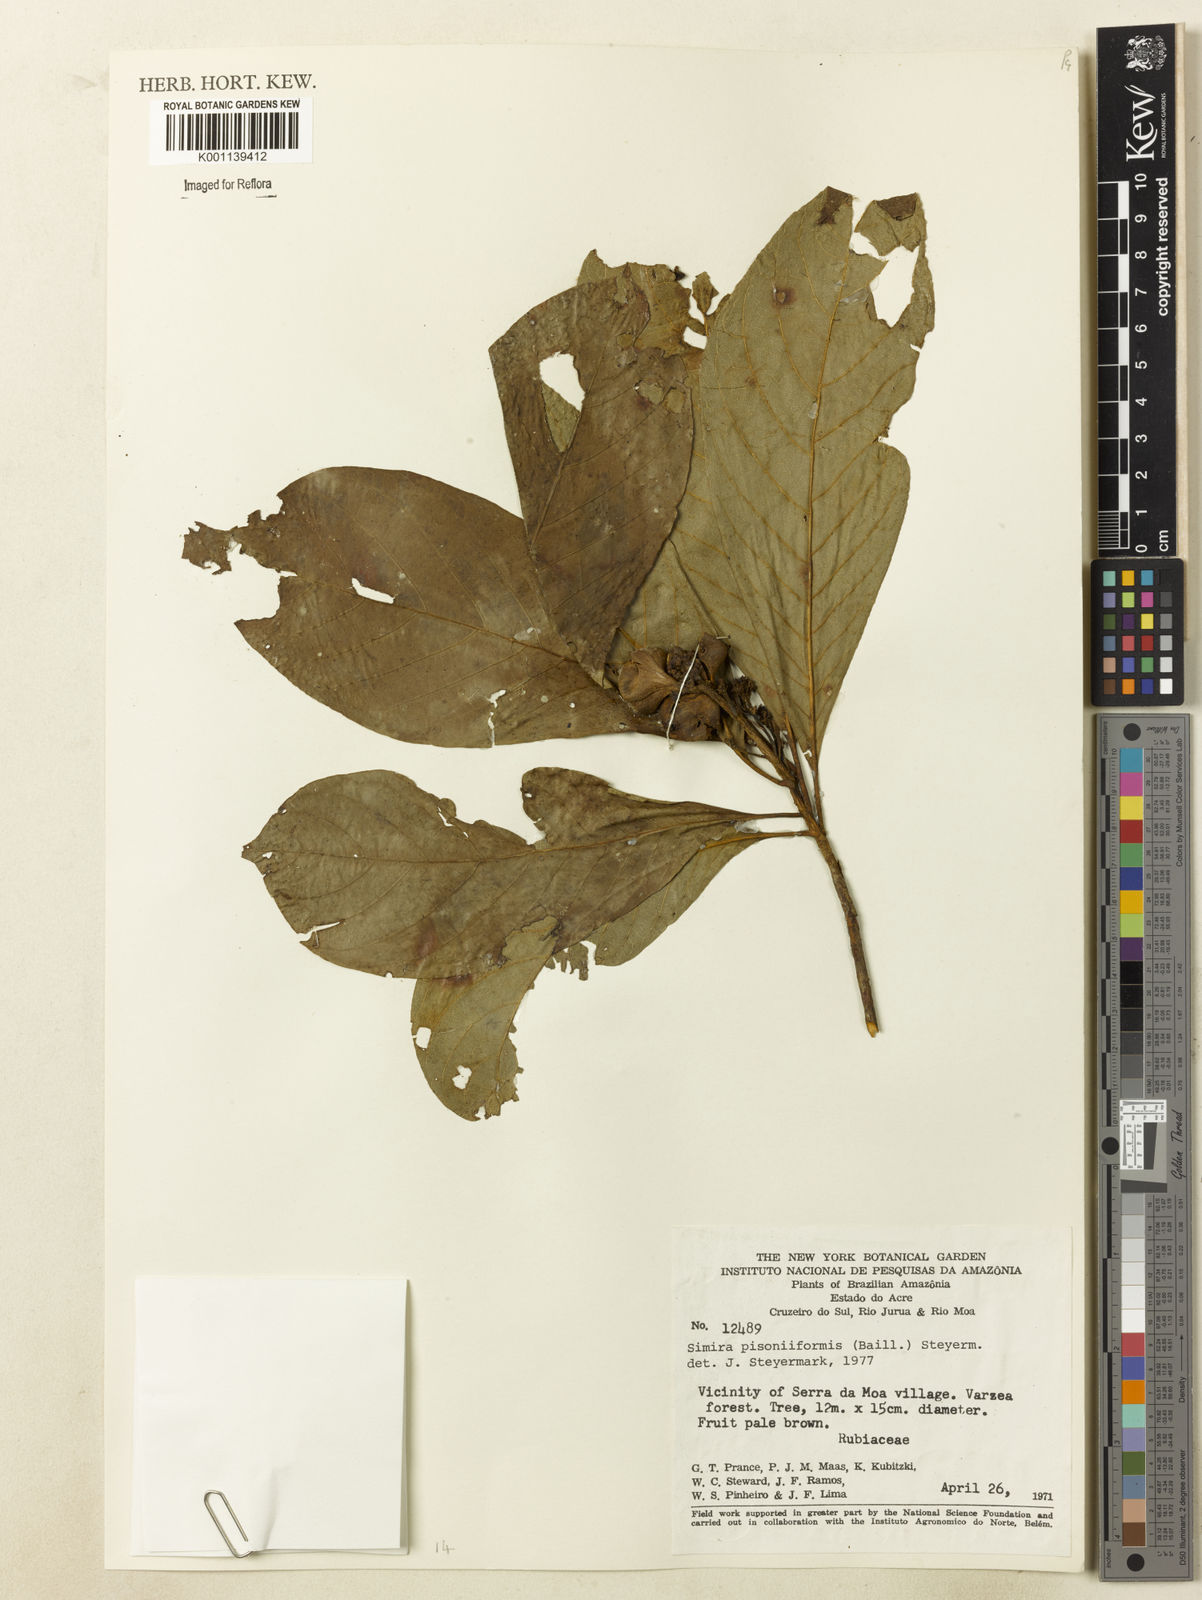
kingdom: Plantae
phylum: Tracheophyta
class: Magnoliopsida
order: Gentianales
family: Rubiaceae
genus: Simira
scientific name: Simira podocarpa
